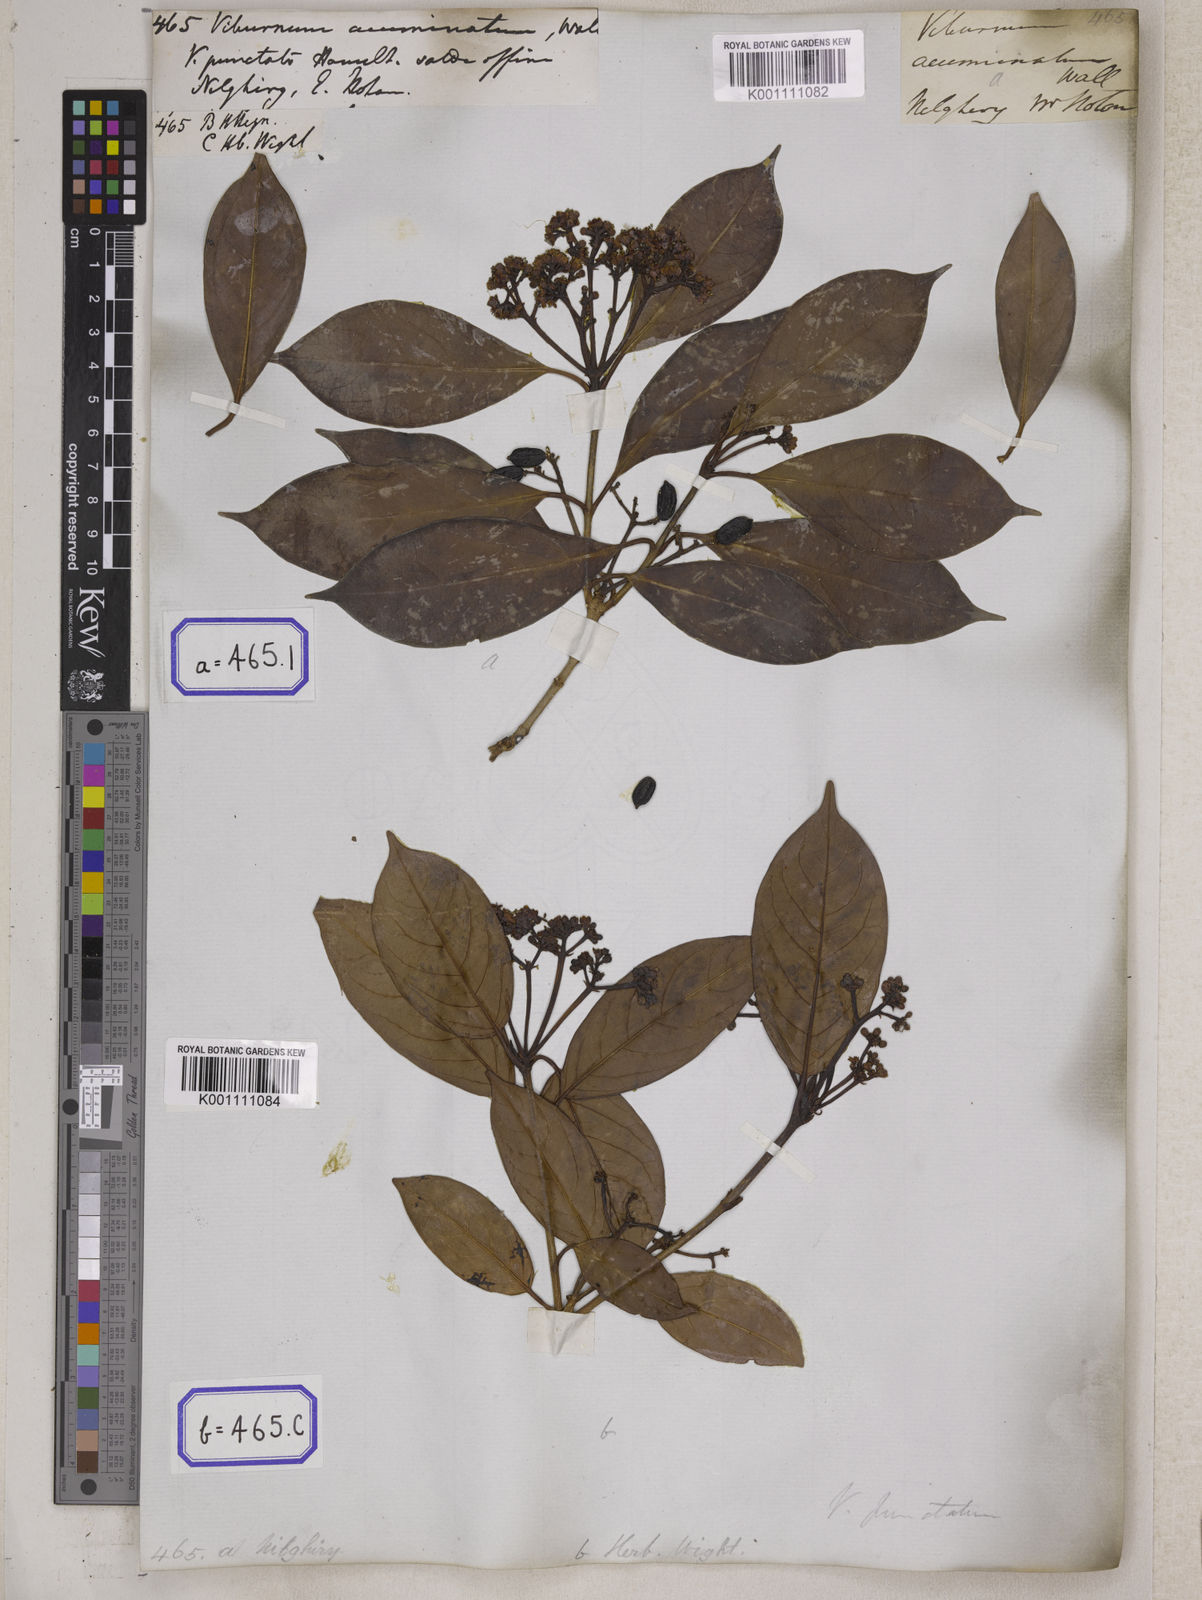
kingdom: Plantae
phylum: Tracheophyta
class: Magnoliopsida
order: Dipsacales
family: Viburnaceae
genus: Viburnum
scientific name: Viburnum
